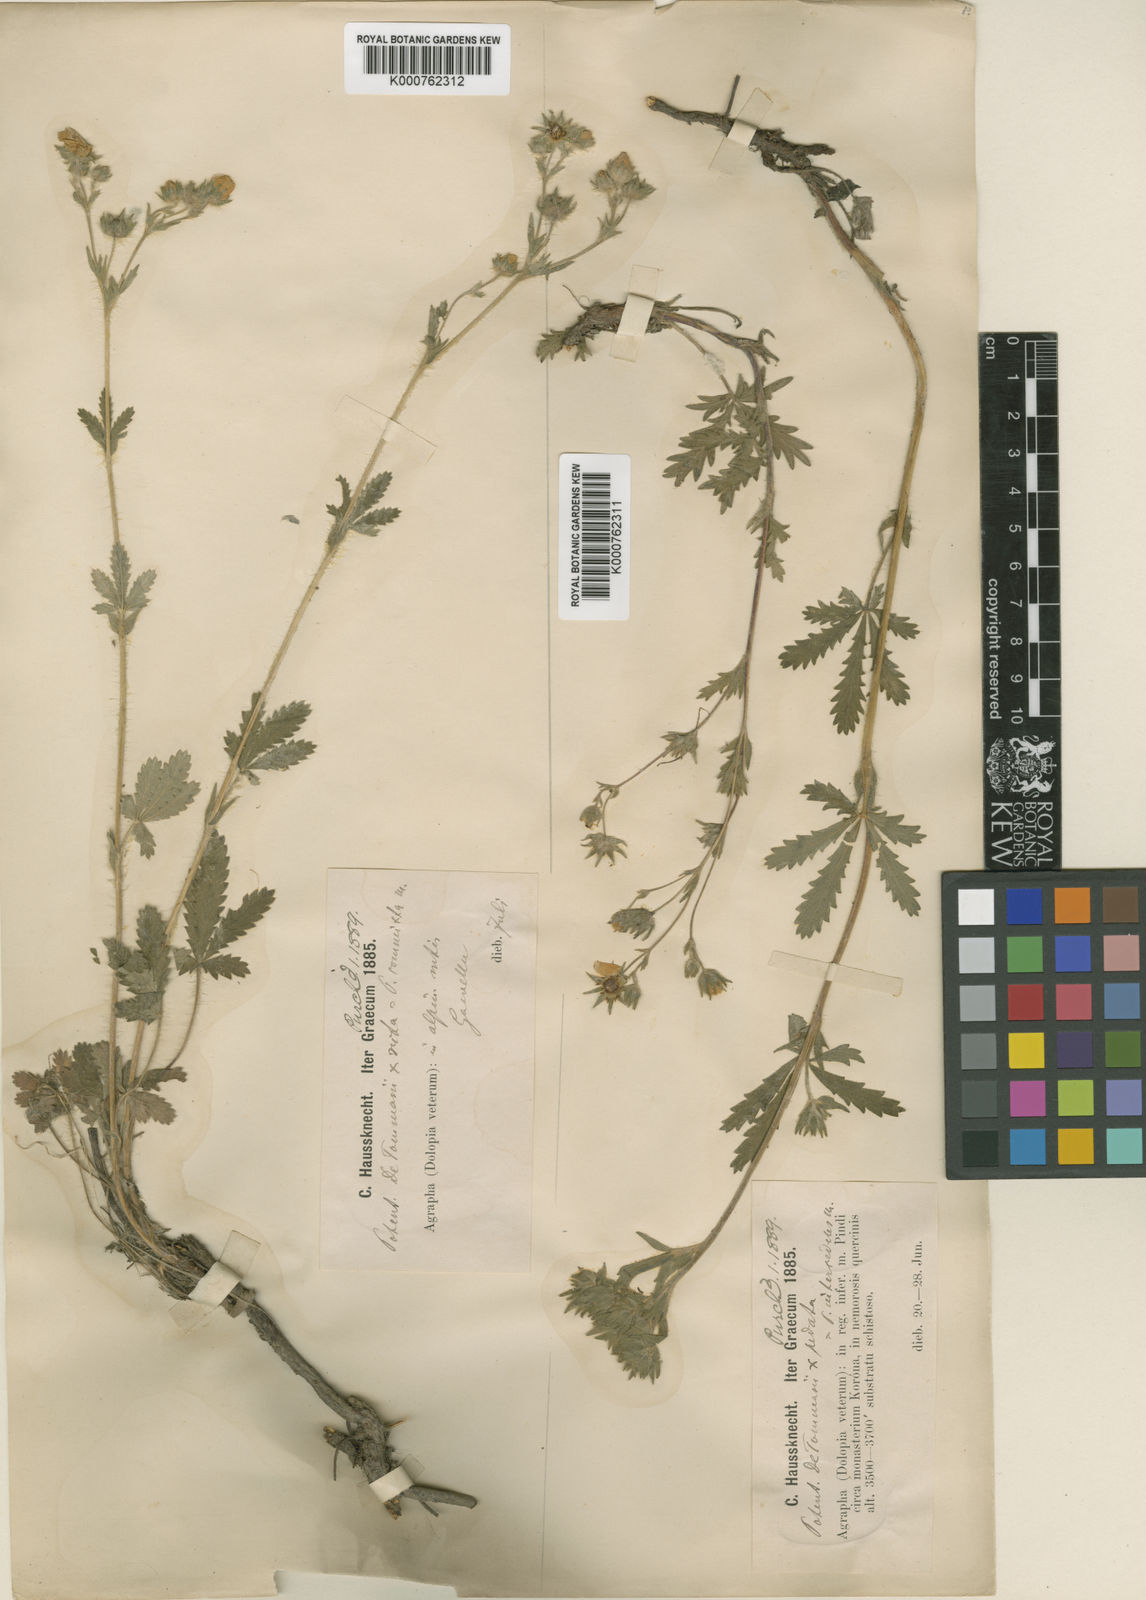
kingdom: Plantae
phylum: Tracheophyta
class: Magnoliopsida
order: Rosales
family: Rosaceae
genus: Potentilla
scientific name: Potentilla
